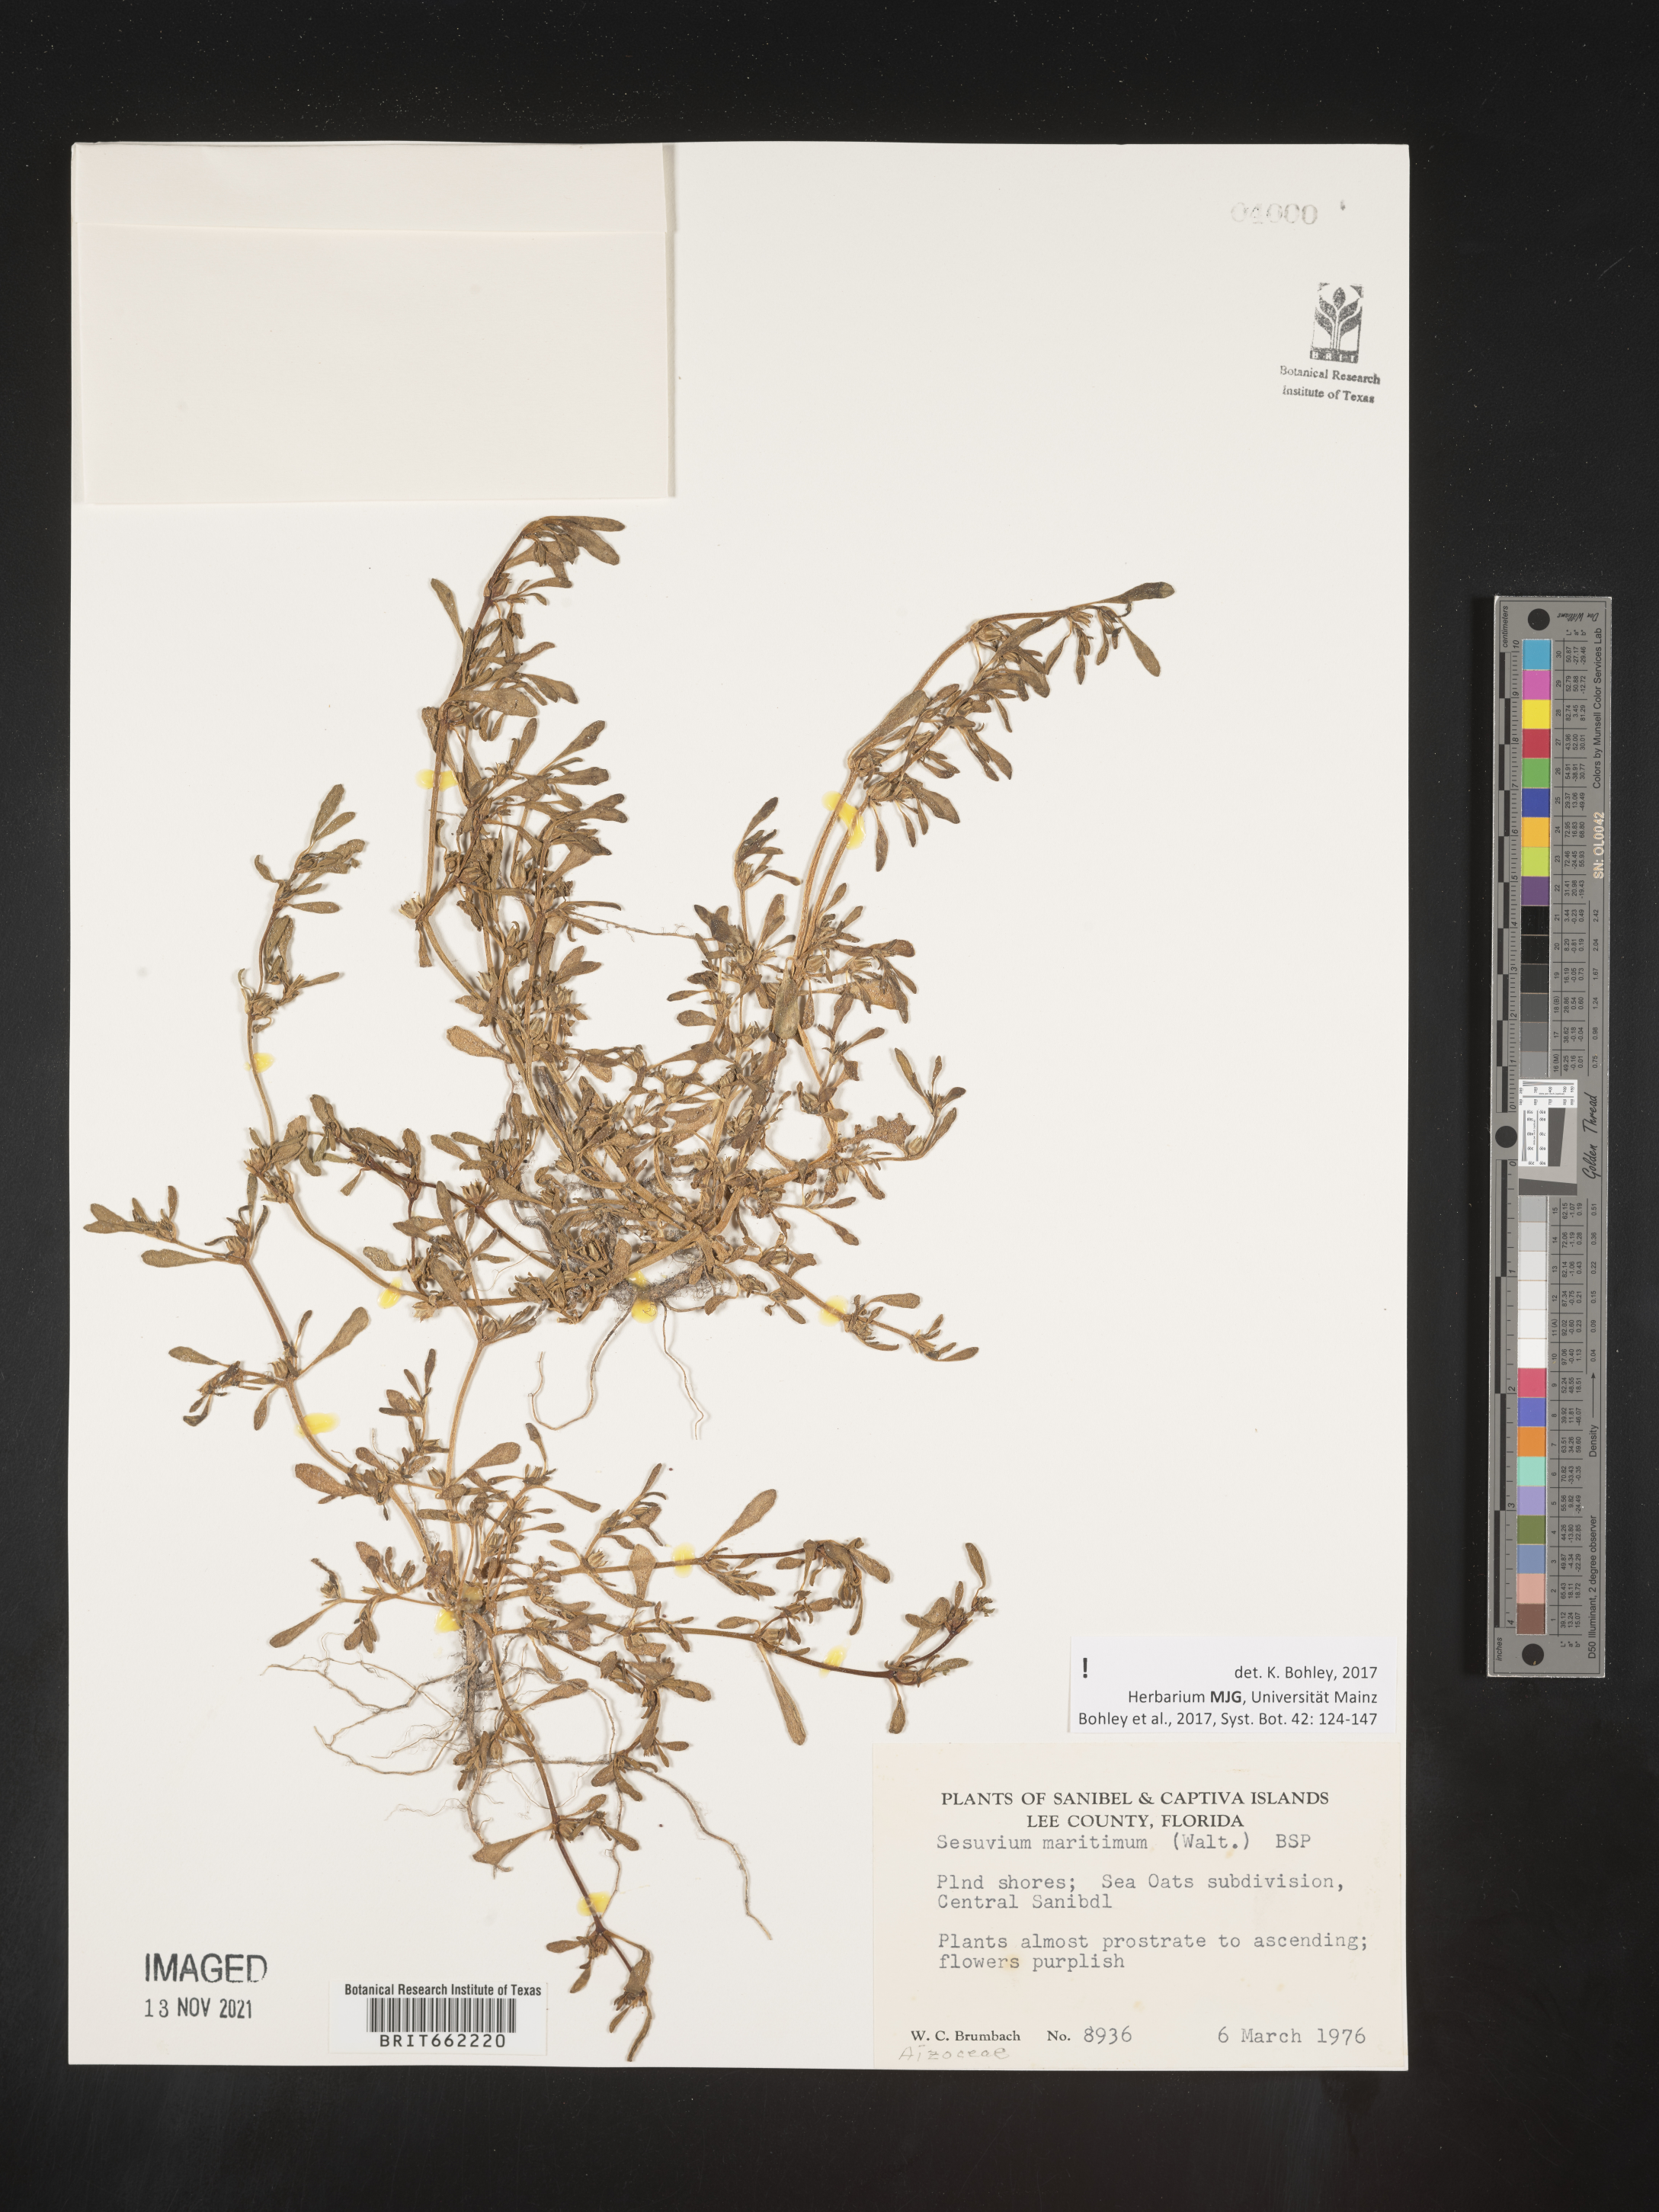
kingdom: Plantae
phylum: Tracheophyta
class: Magnoliopsida
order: Caryophyllales
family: Aizoaceae
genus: Sesuvium
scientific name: Sesuvium
